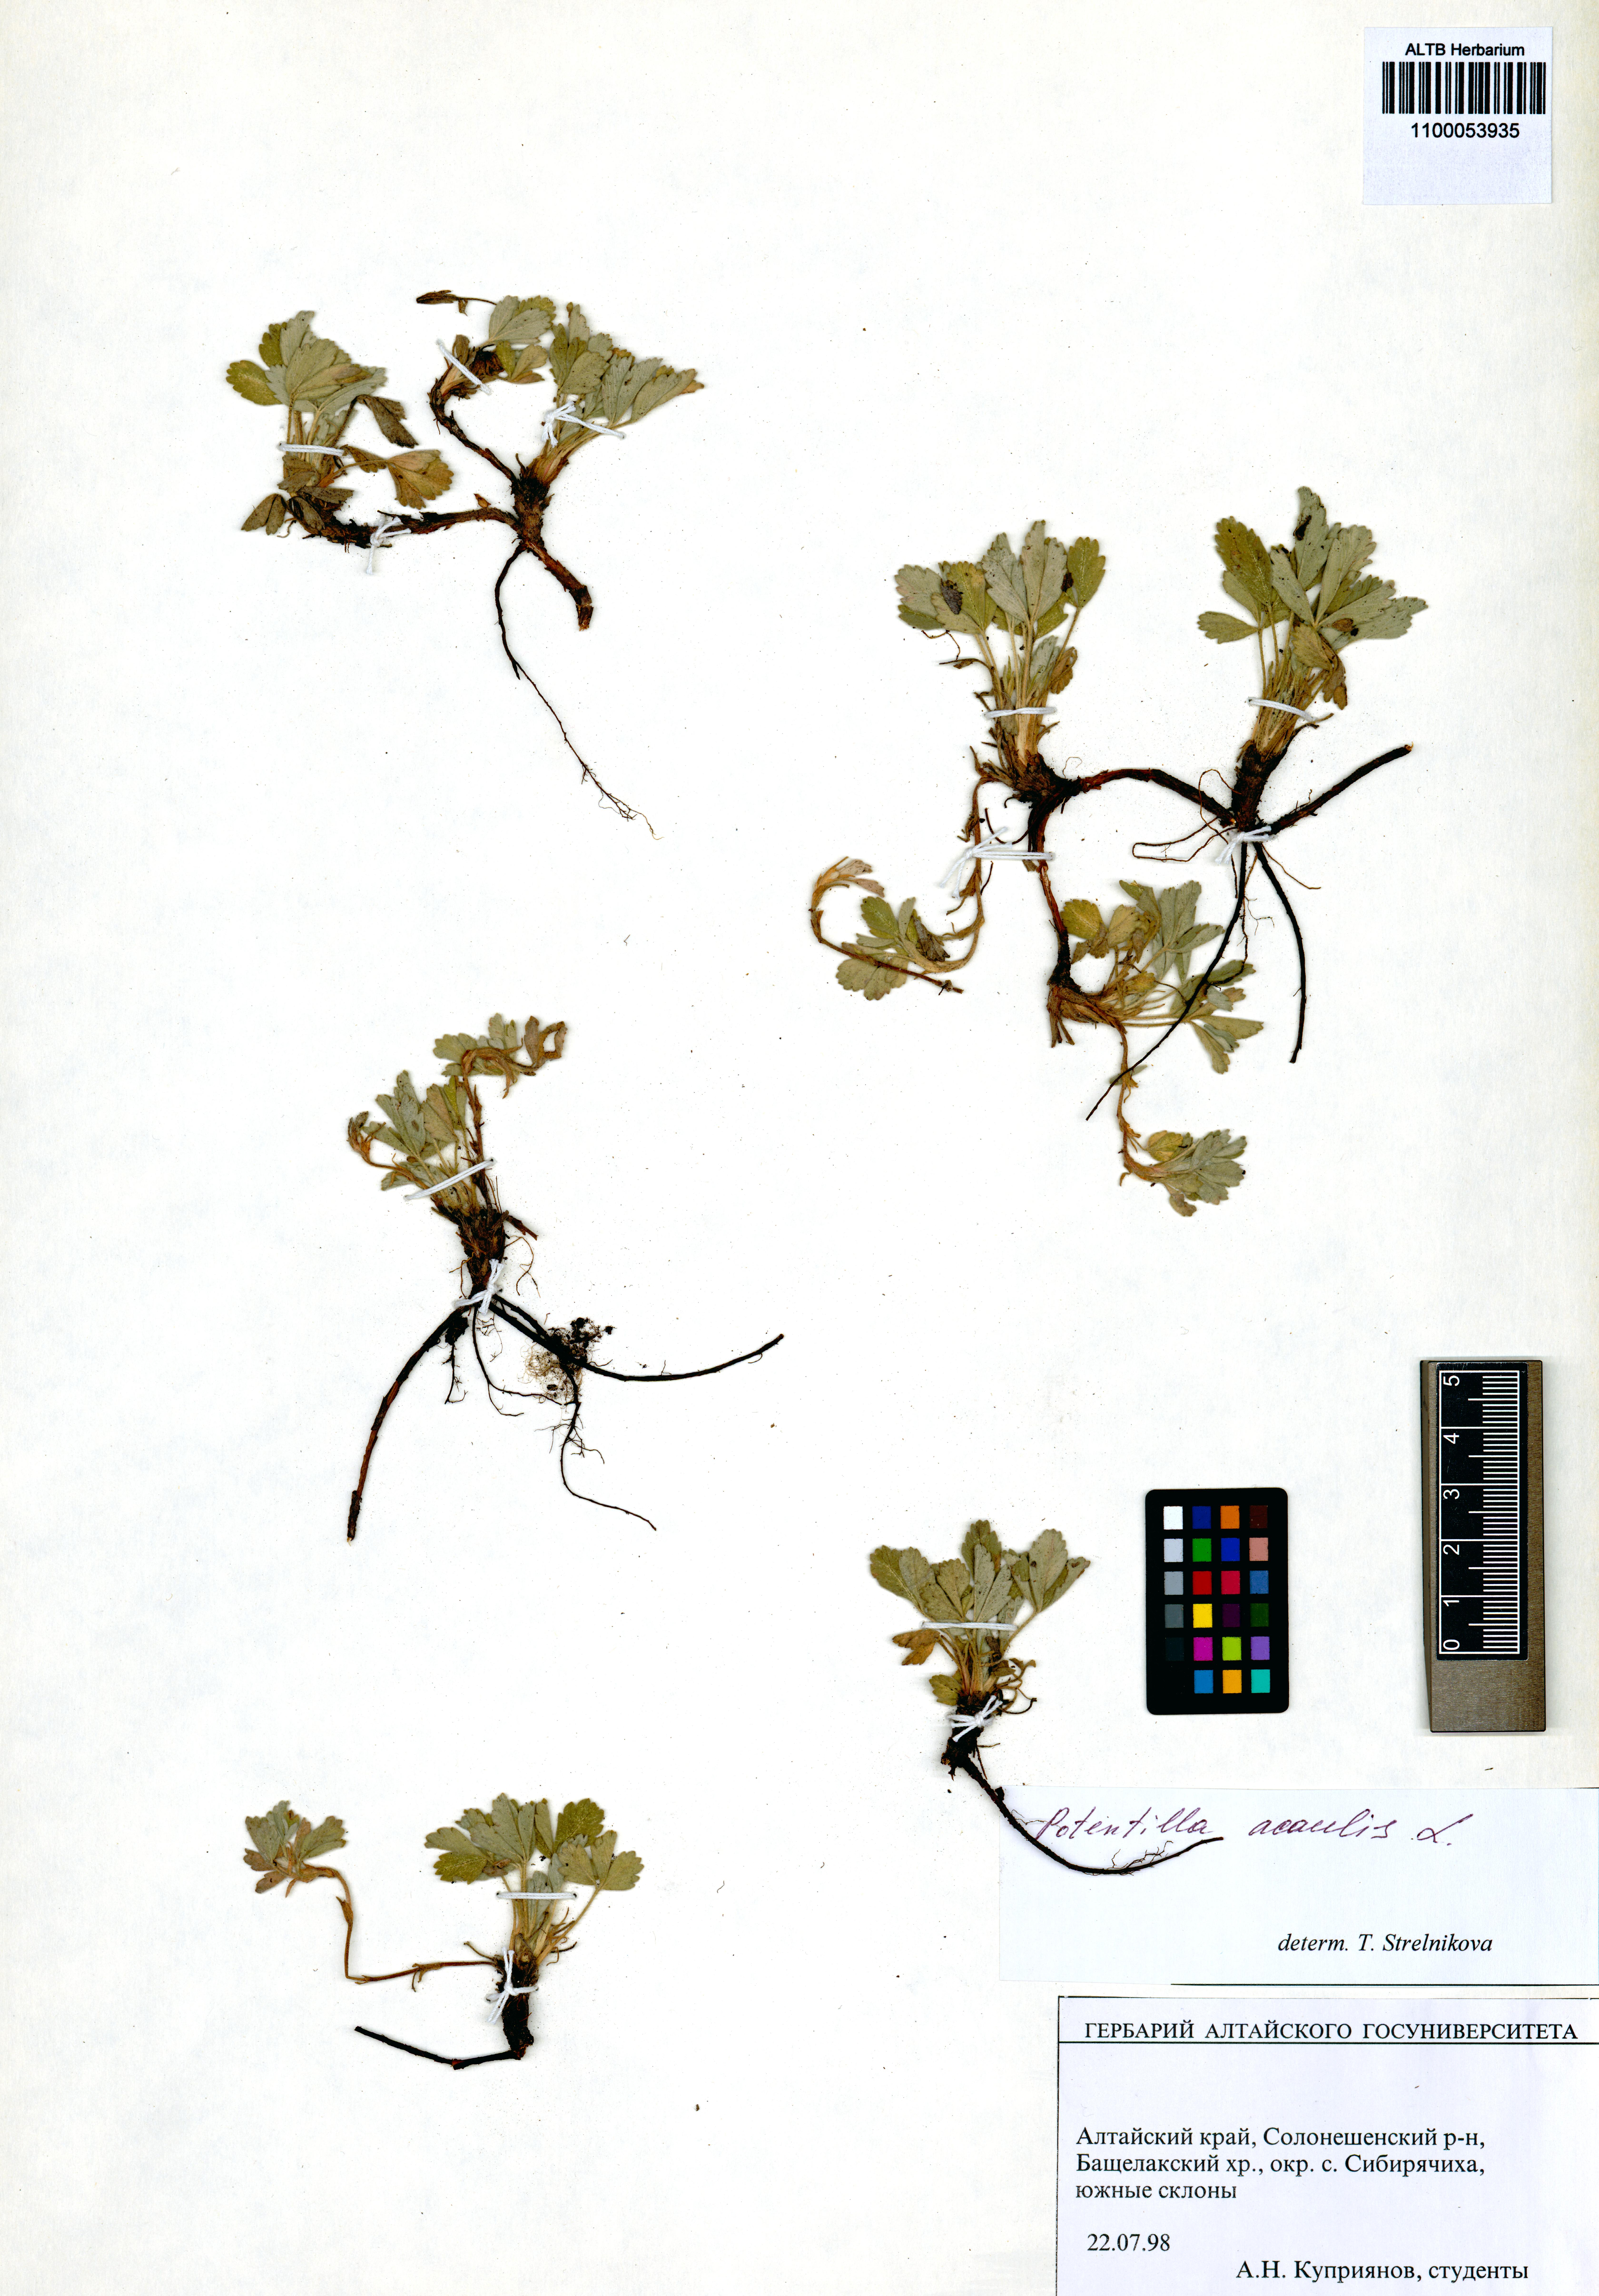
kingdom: Plantae
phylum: Tracheophyta
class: Magnoliopsida
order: Rosales
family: Rosaceae
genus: Potentilla
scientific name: Potentilla acaulis
